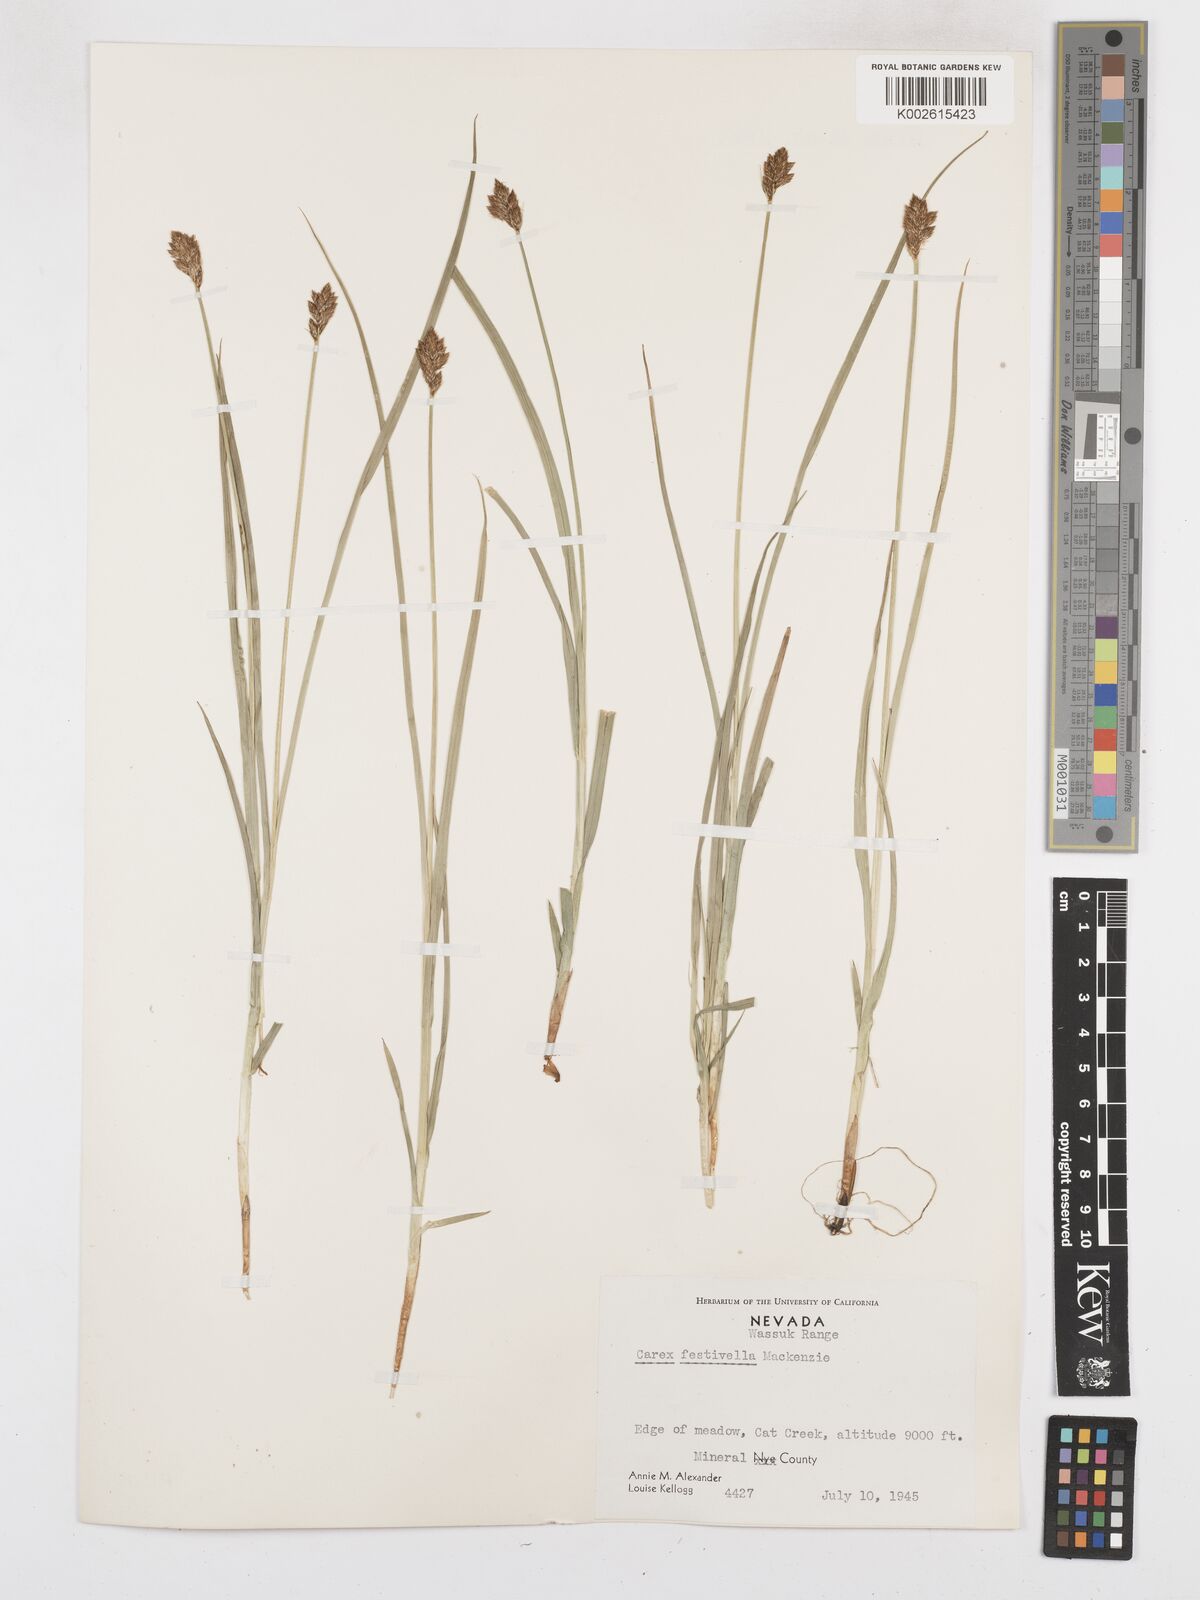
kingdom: Plantae
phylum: Tracheophyta
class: Liliopsida
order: Poales
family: Cyperaceae
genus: Carex
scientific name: Carex microptera
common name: Oval-headed sedge
